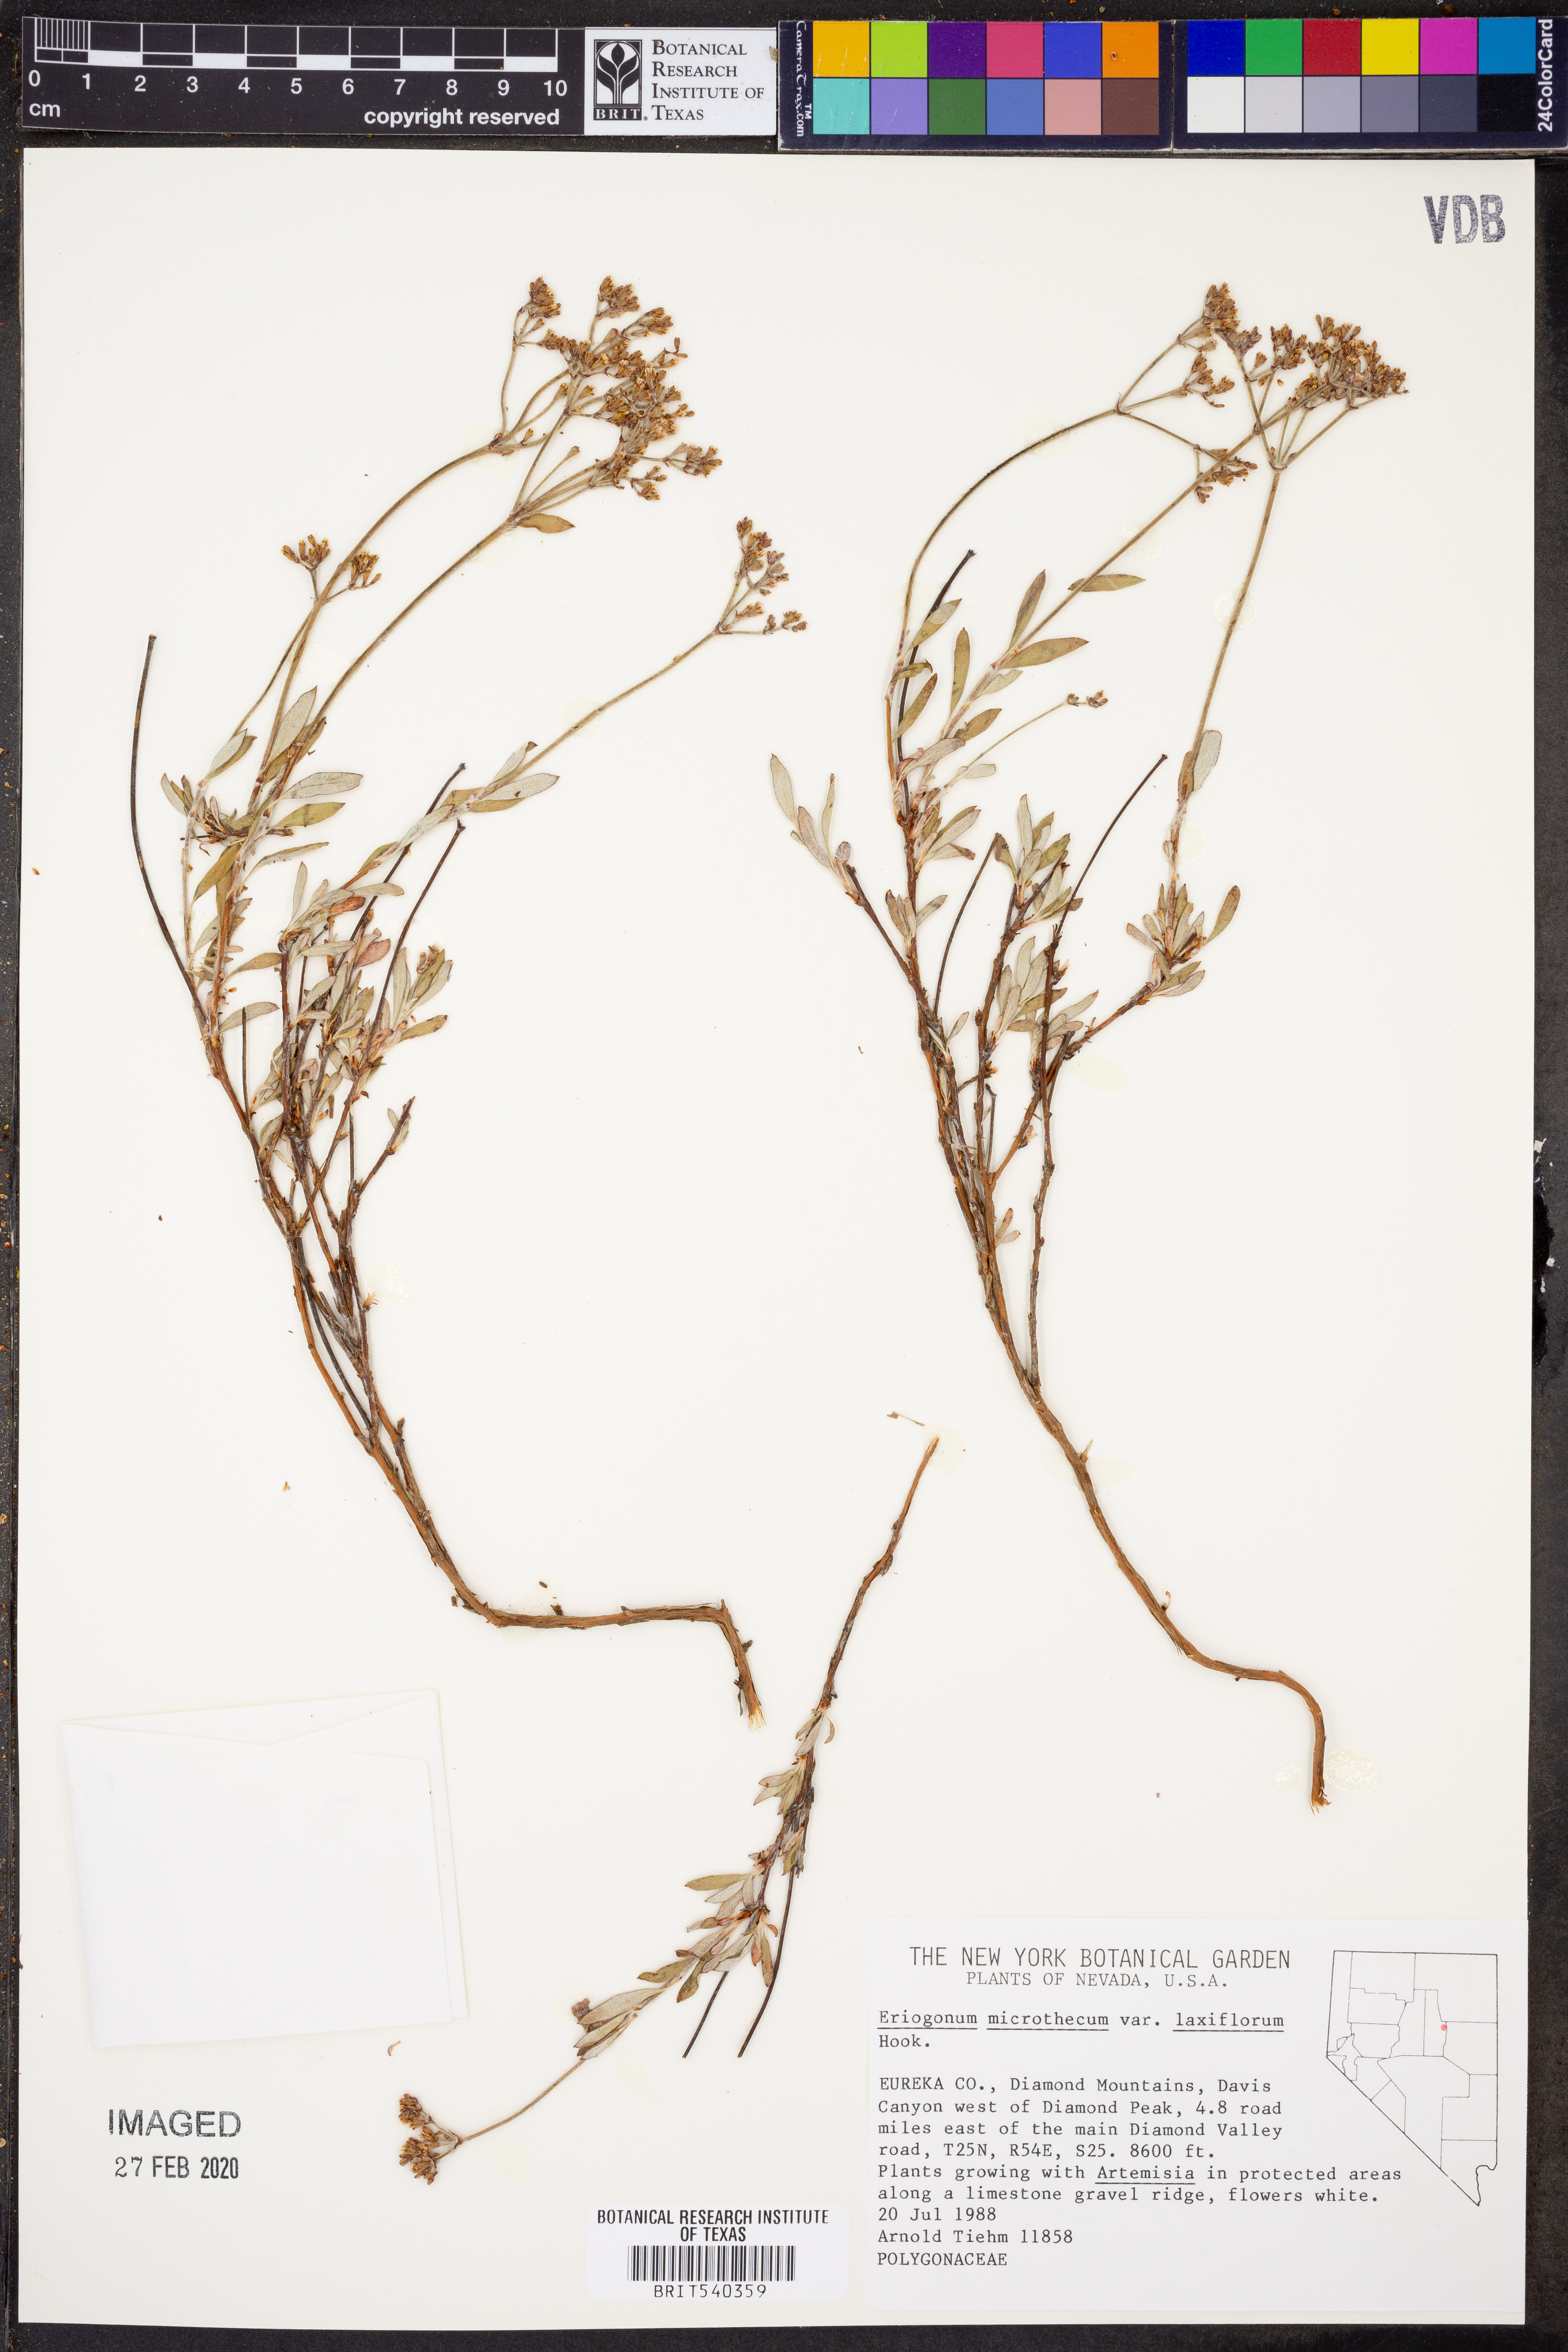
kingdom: Plantae
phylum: Tracheophyta
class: Magnoliopsida
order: Caryophyllales
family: Polygonaceae
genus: Eriogonum
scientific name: Eriogonum microtheca
